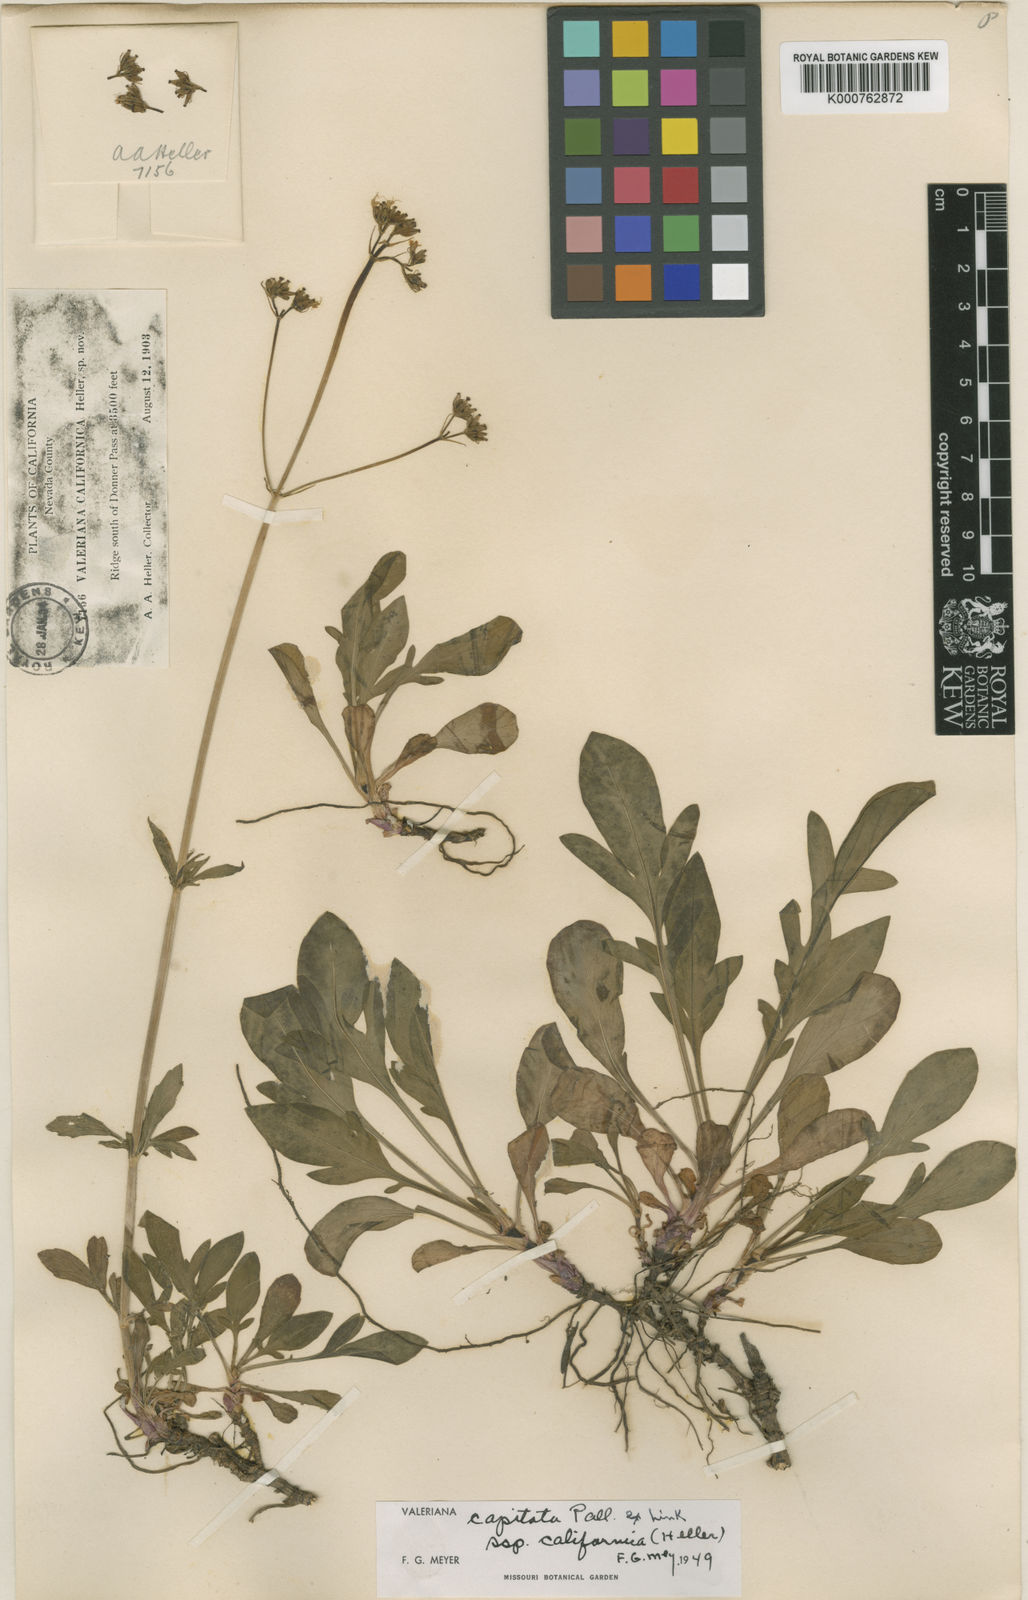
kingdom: Plantae
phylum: Tracheophyta
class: Magnoliopsida
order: Dipsacales
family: Caprifoliaceae
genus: Valeriana
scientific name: Valeriana californica
